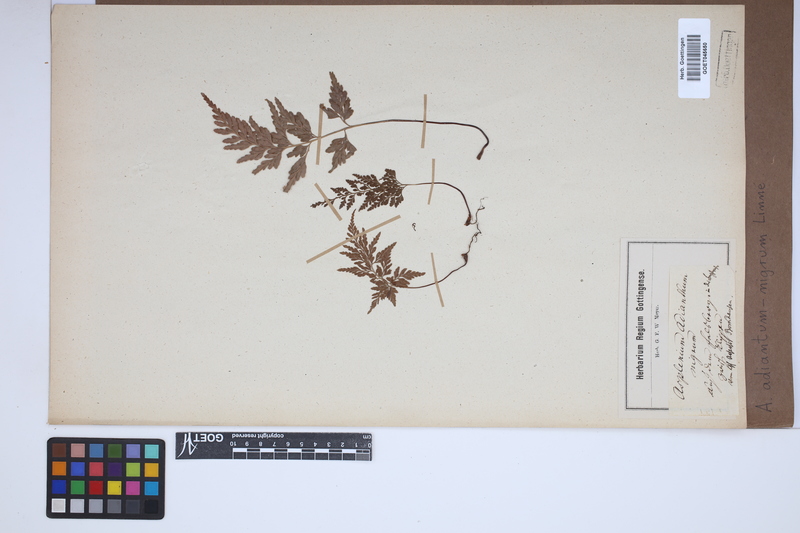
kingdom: Plantae
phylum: Tracheophyta
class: Polypodiopsida
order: Polypodiales
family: Aspleniaceae
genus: Asplenium
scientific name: Asplenium adiantum-nigrum
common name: Black spleenwort
